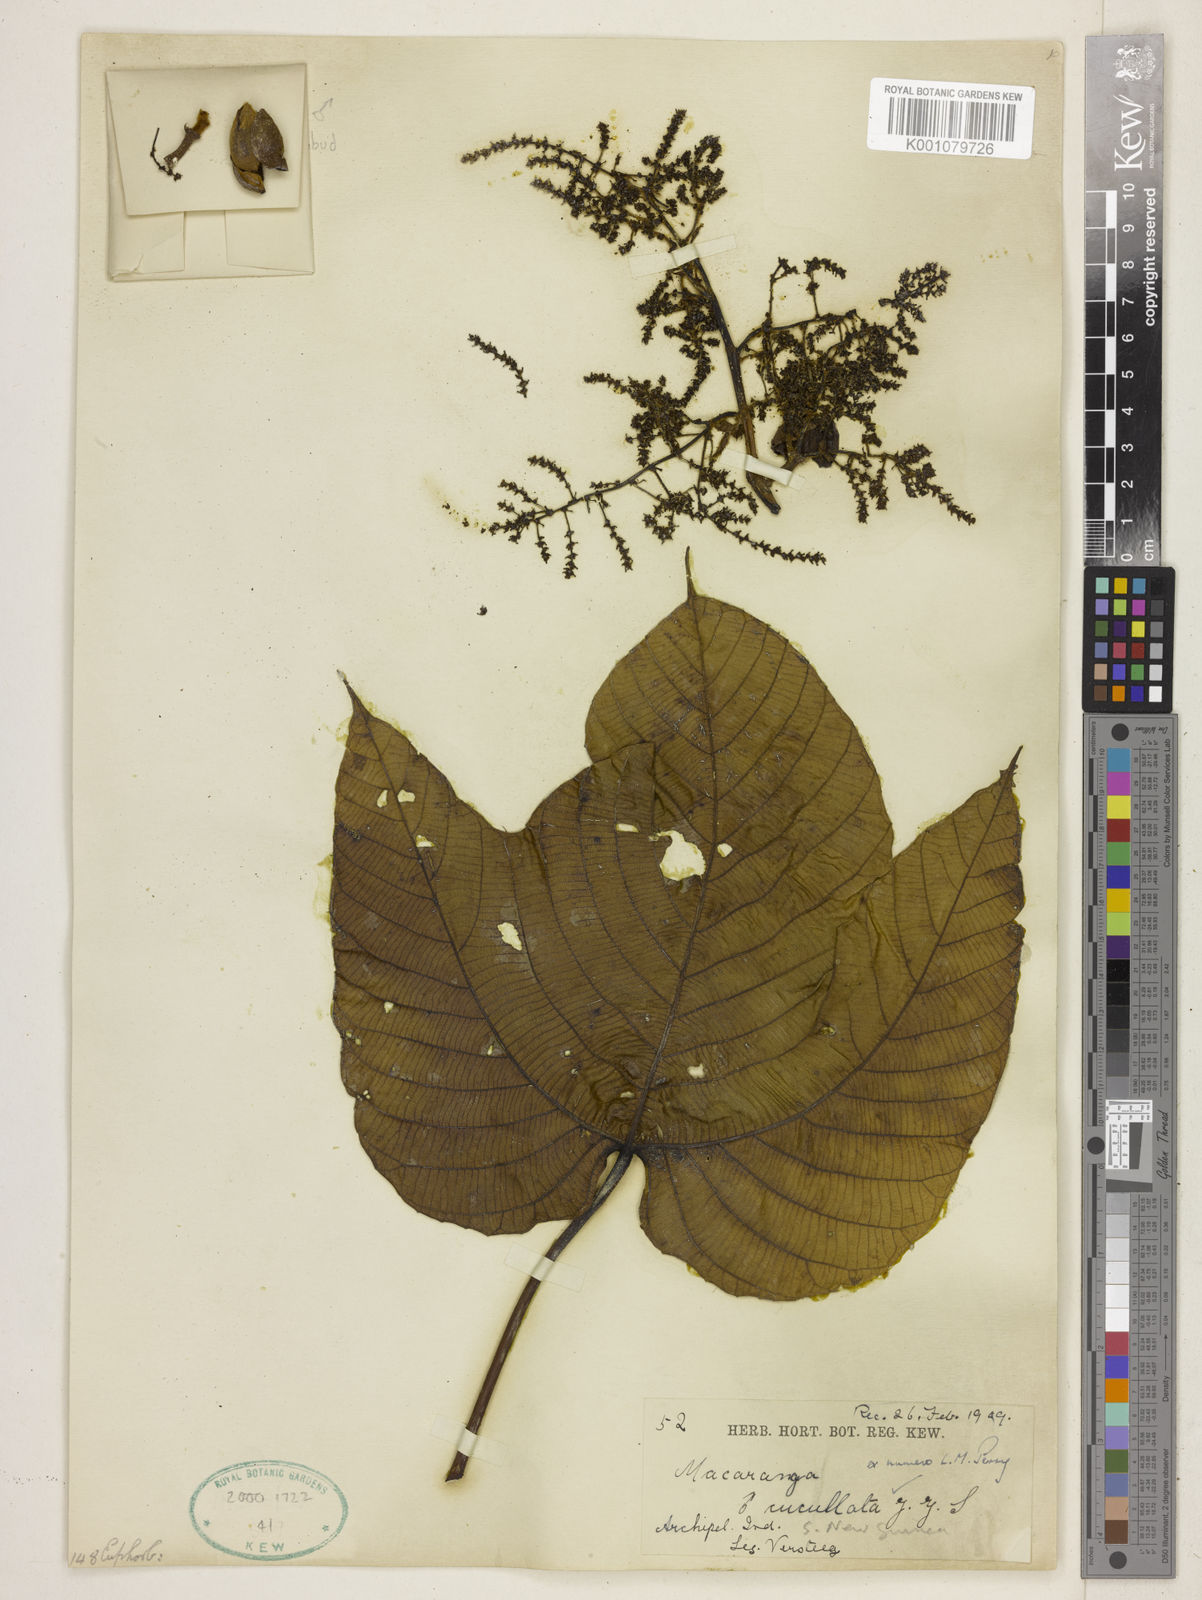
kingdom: Plantae
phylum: Tracheophyta
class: Magnoliopsida
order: Malpighiales
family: Euphorbiaceae
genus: Macaranga
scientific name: Macaranga cucullata
